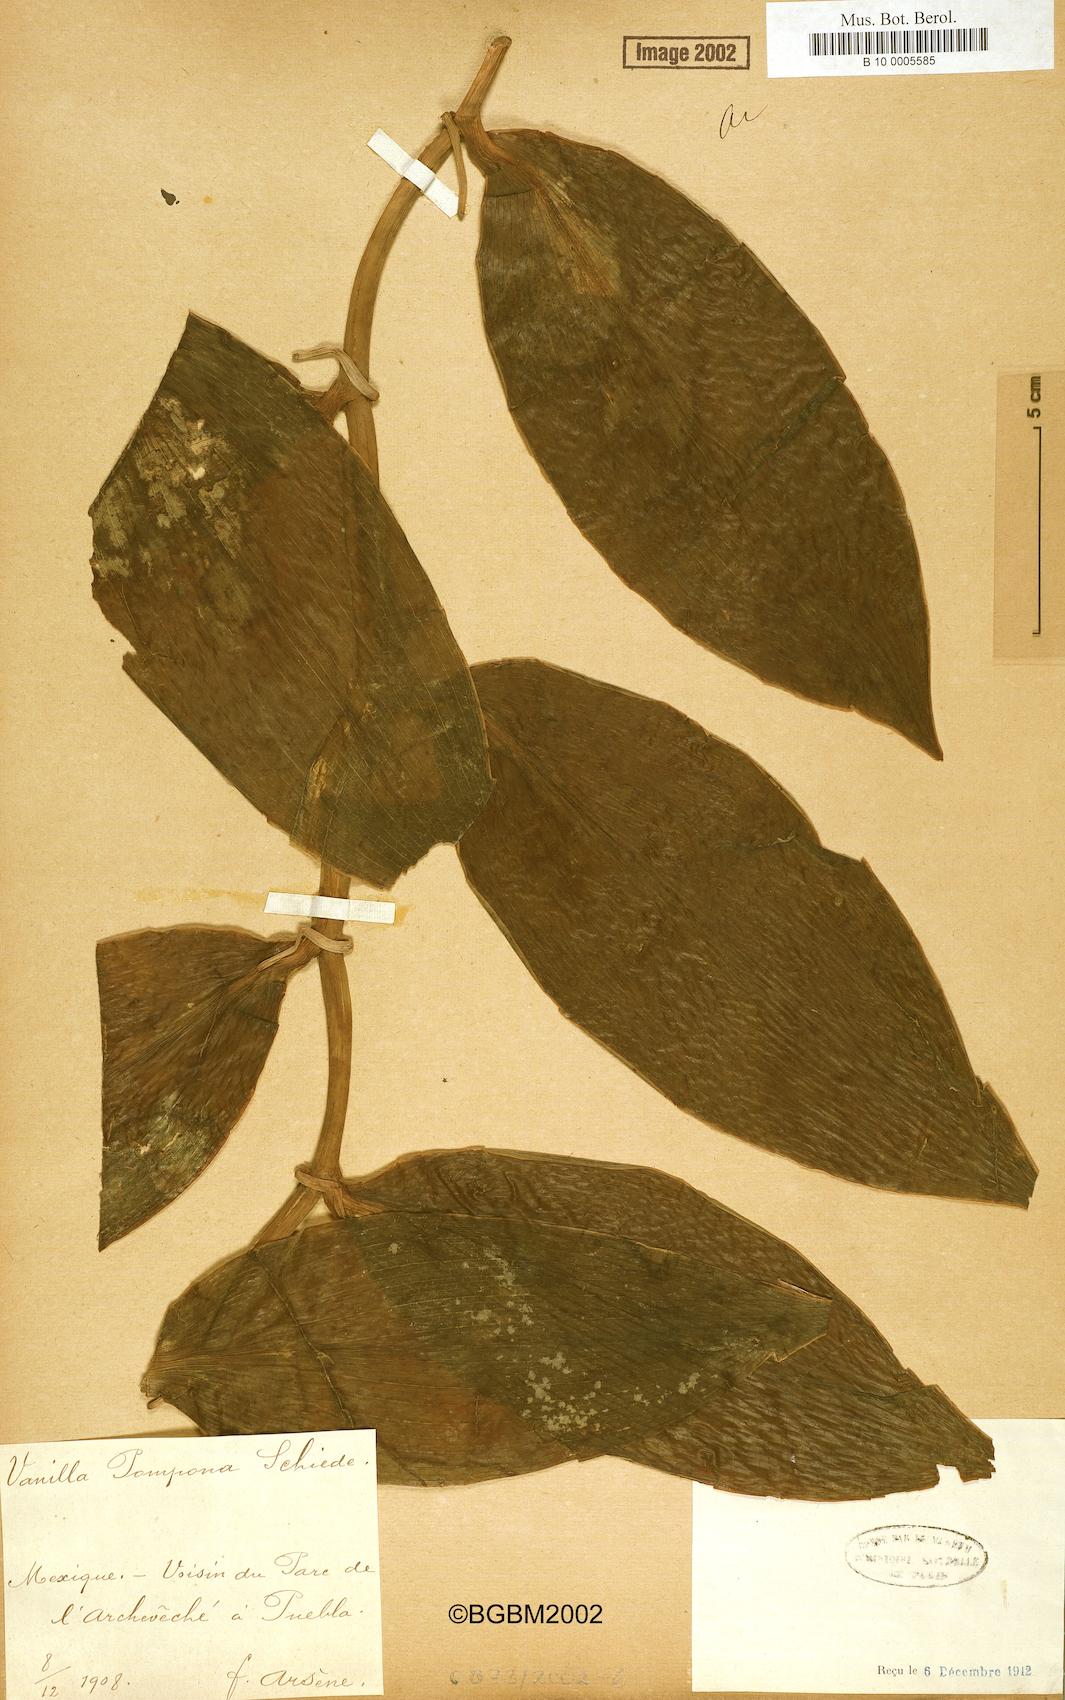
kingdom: Plantae
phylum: Tracheophyta
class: Liliopsida
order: Asparagales
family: Orchidaceae
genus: Vanilla
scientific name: Vanilla pompona
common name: West indian vanilla
